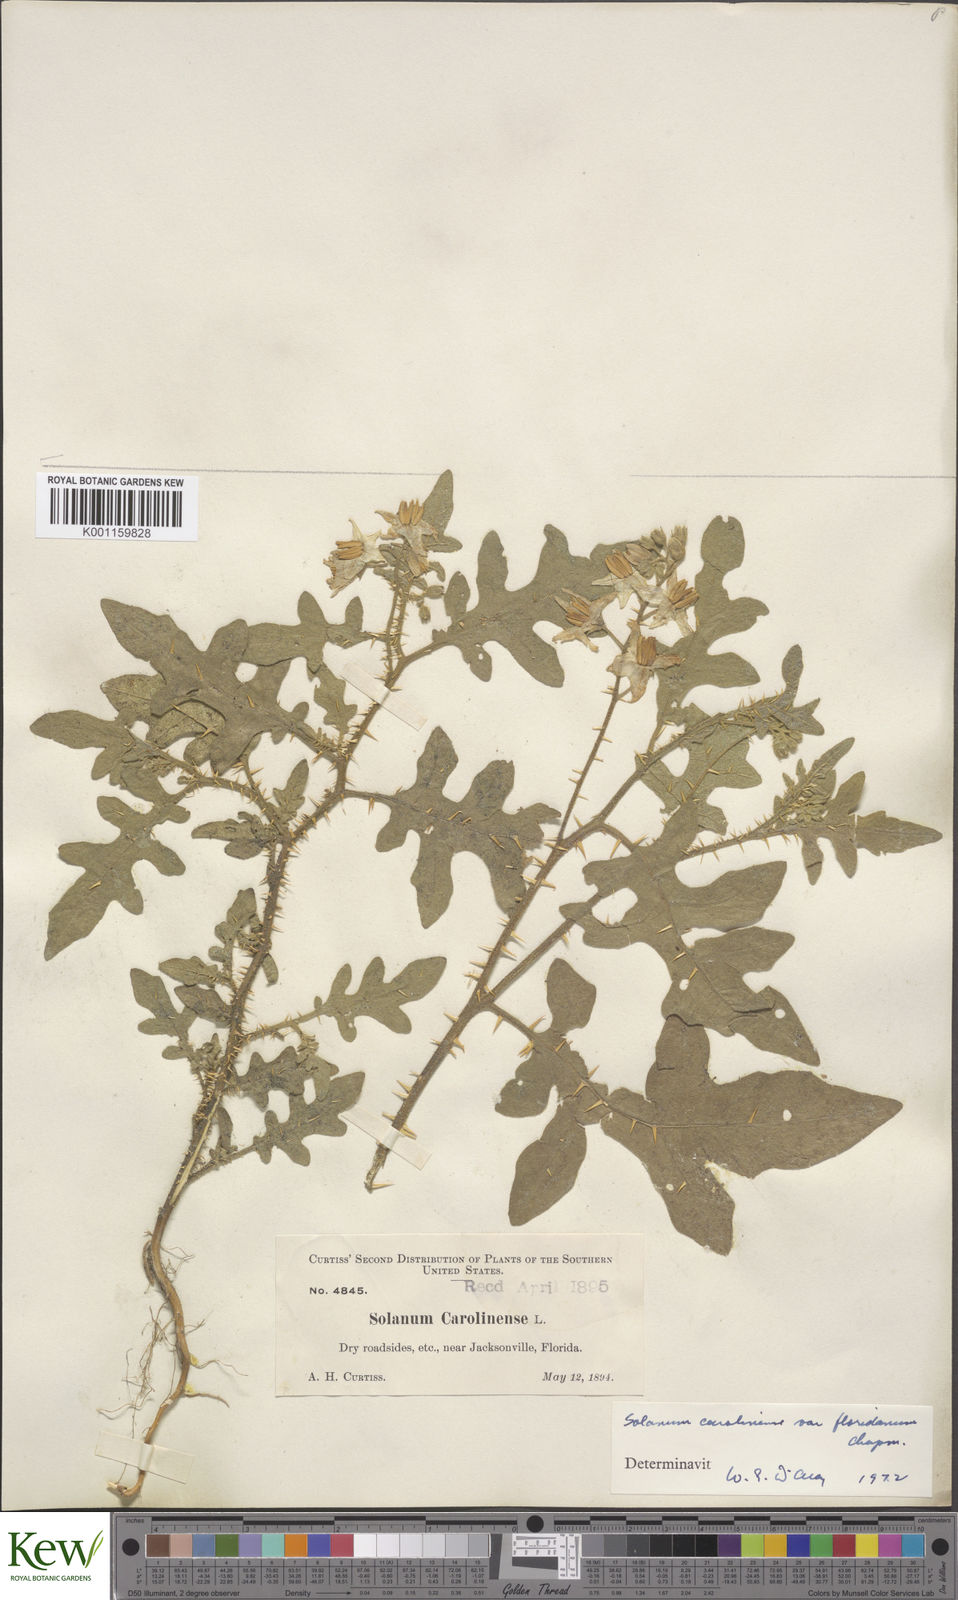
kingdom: Plantae
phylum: Tracheophyta
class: Magnoliopsida
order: Solanales
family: Solanaceae
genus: Solanum
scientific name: Solanum carolinense
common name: Horse-nettle
